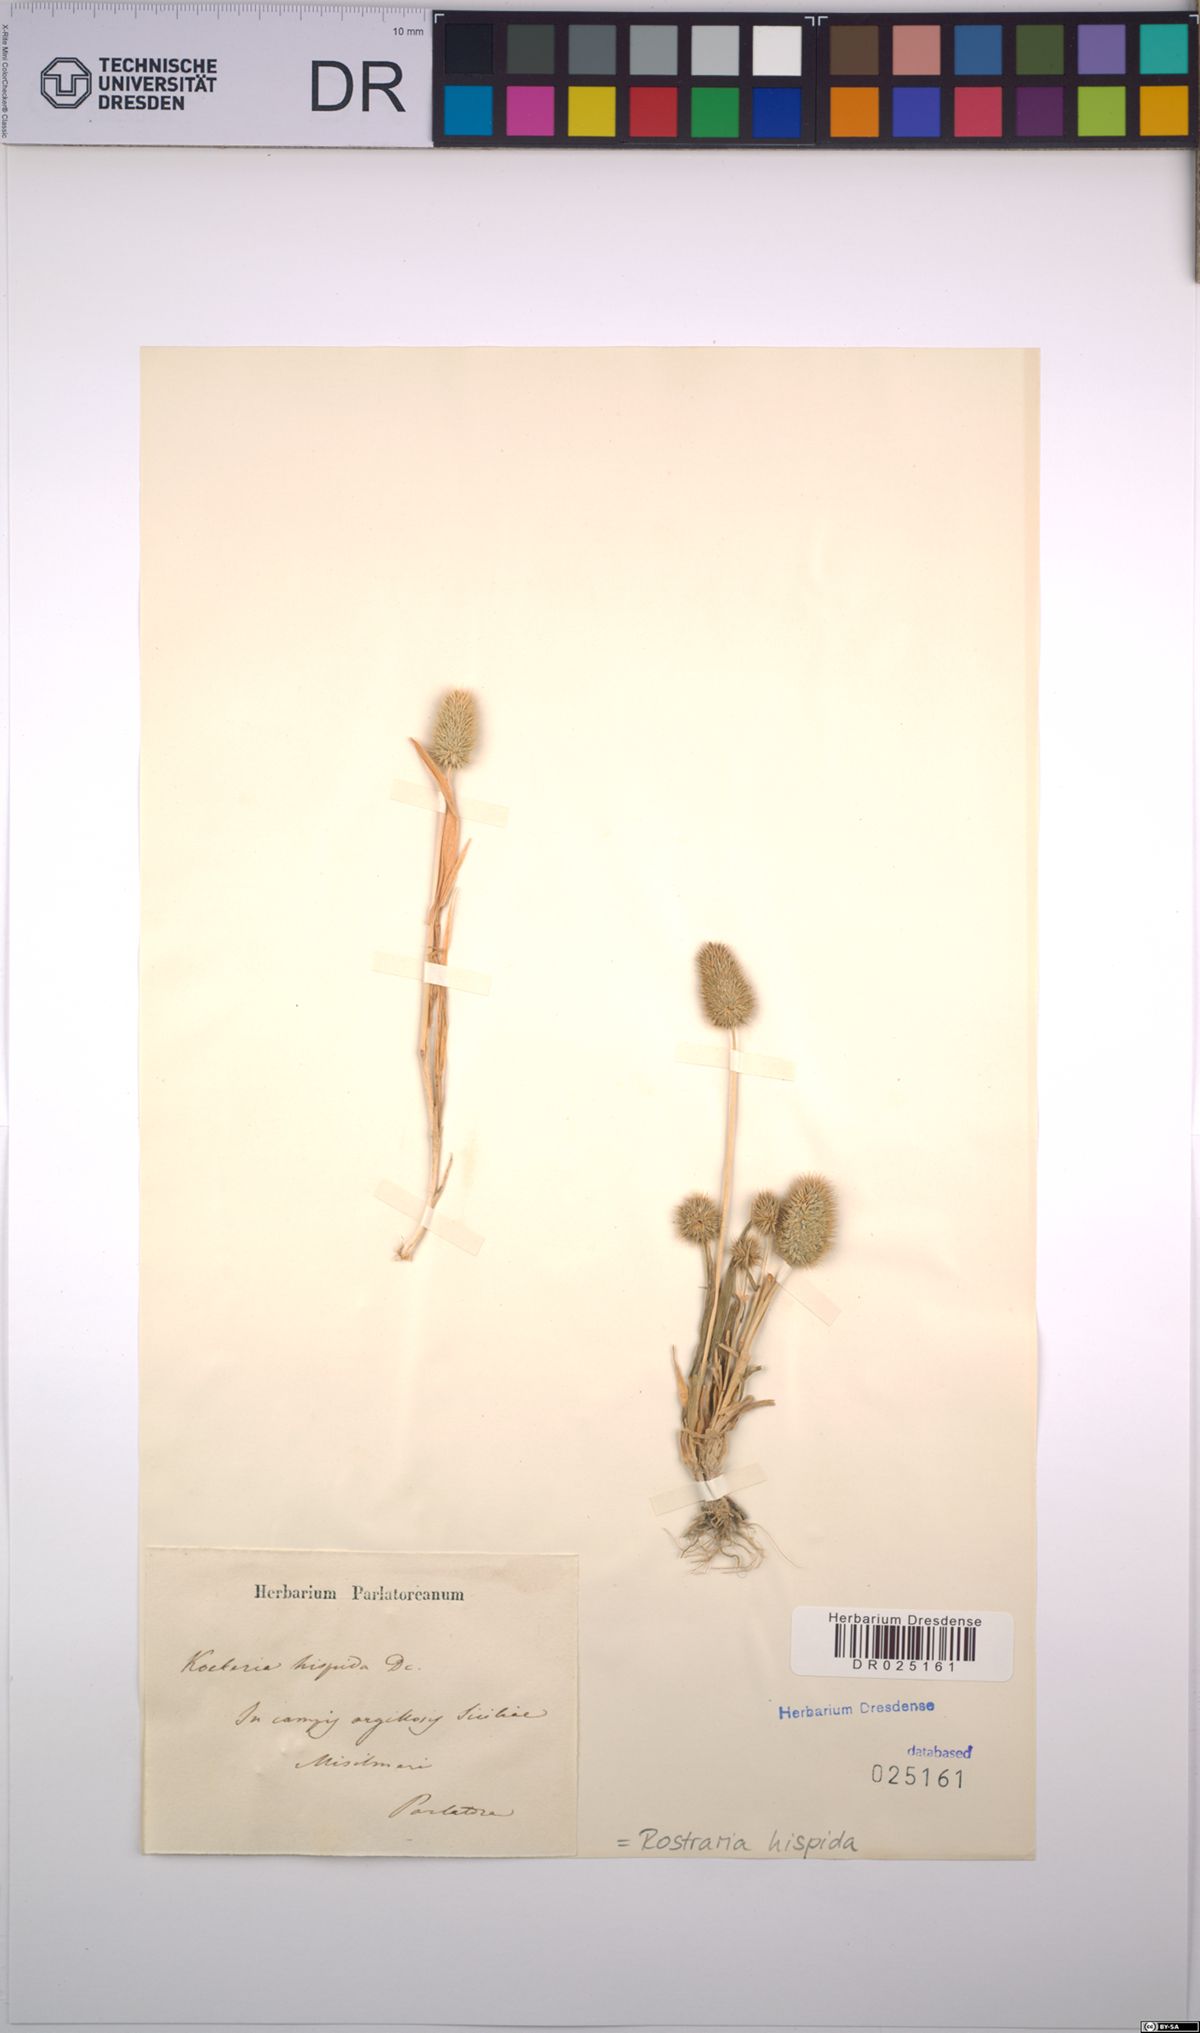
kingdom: Plantae
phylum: Tracheophyta
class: Liliopsida
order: Poales
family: Poaceae
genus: Rostraria
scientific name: Rostraria hispida
